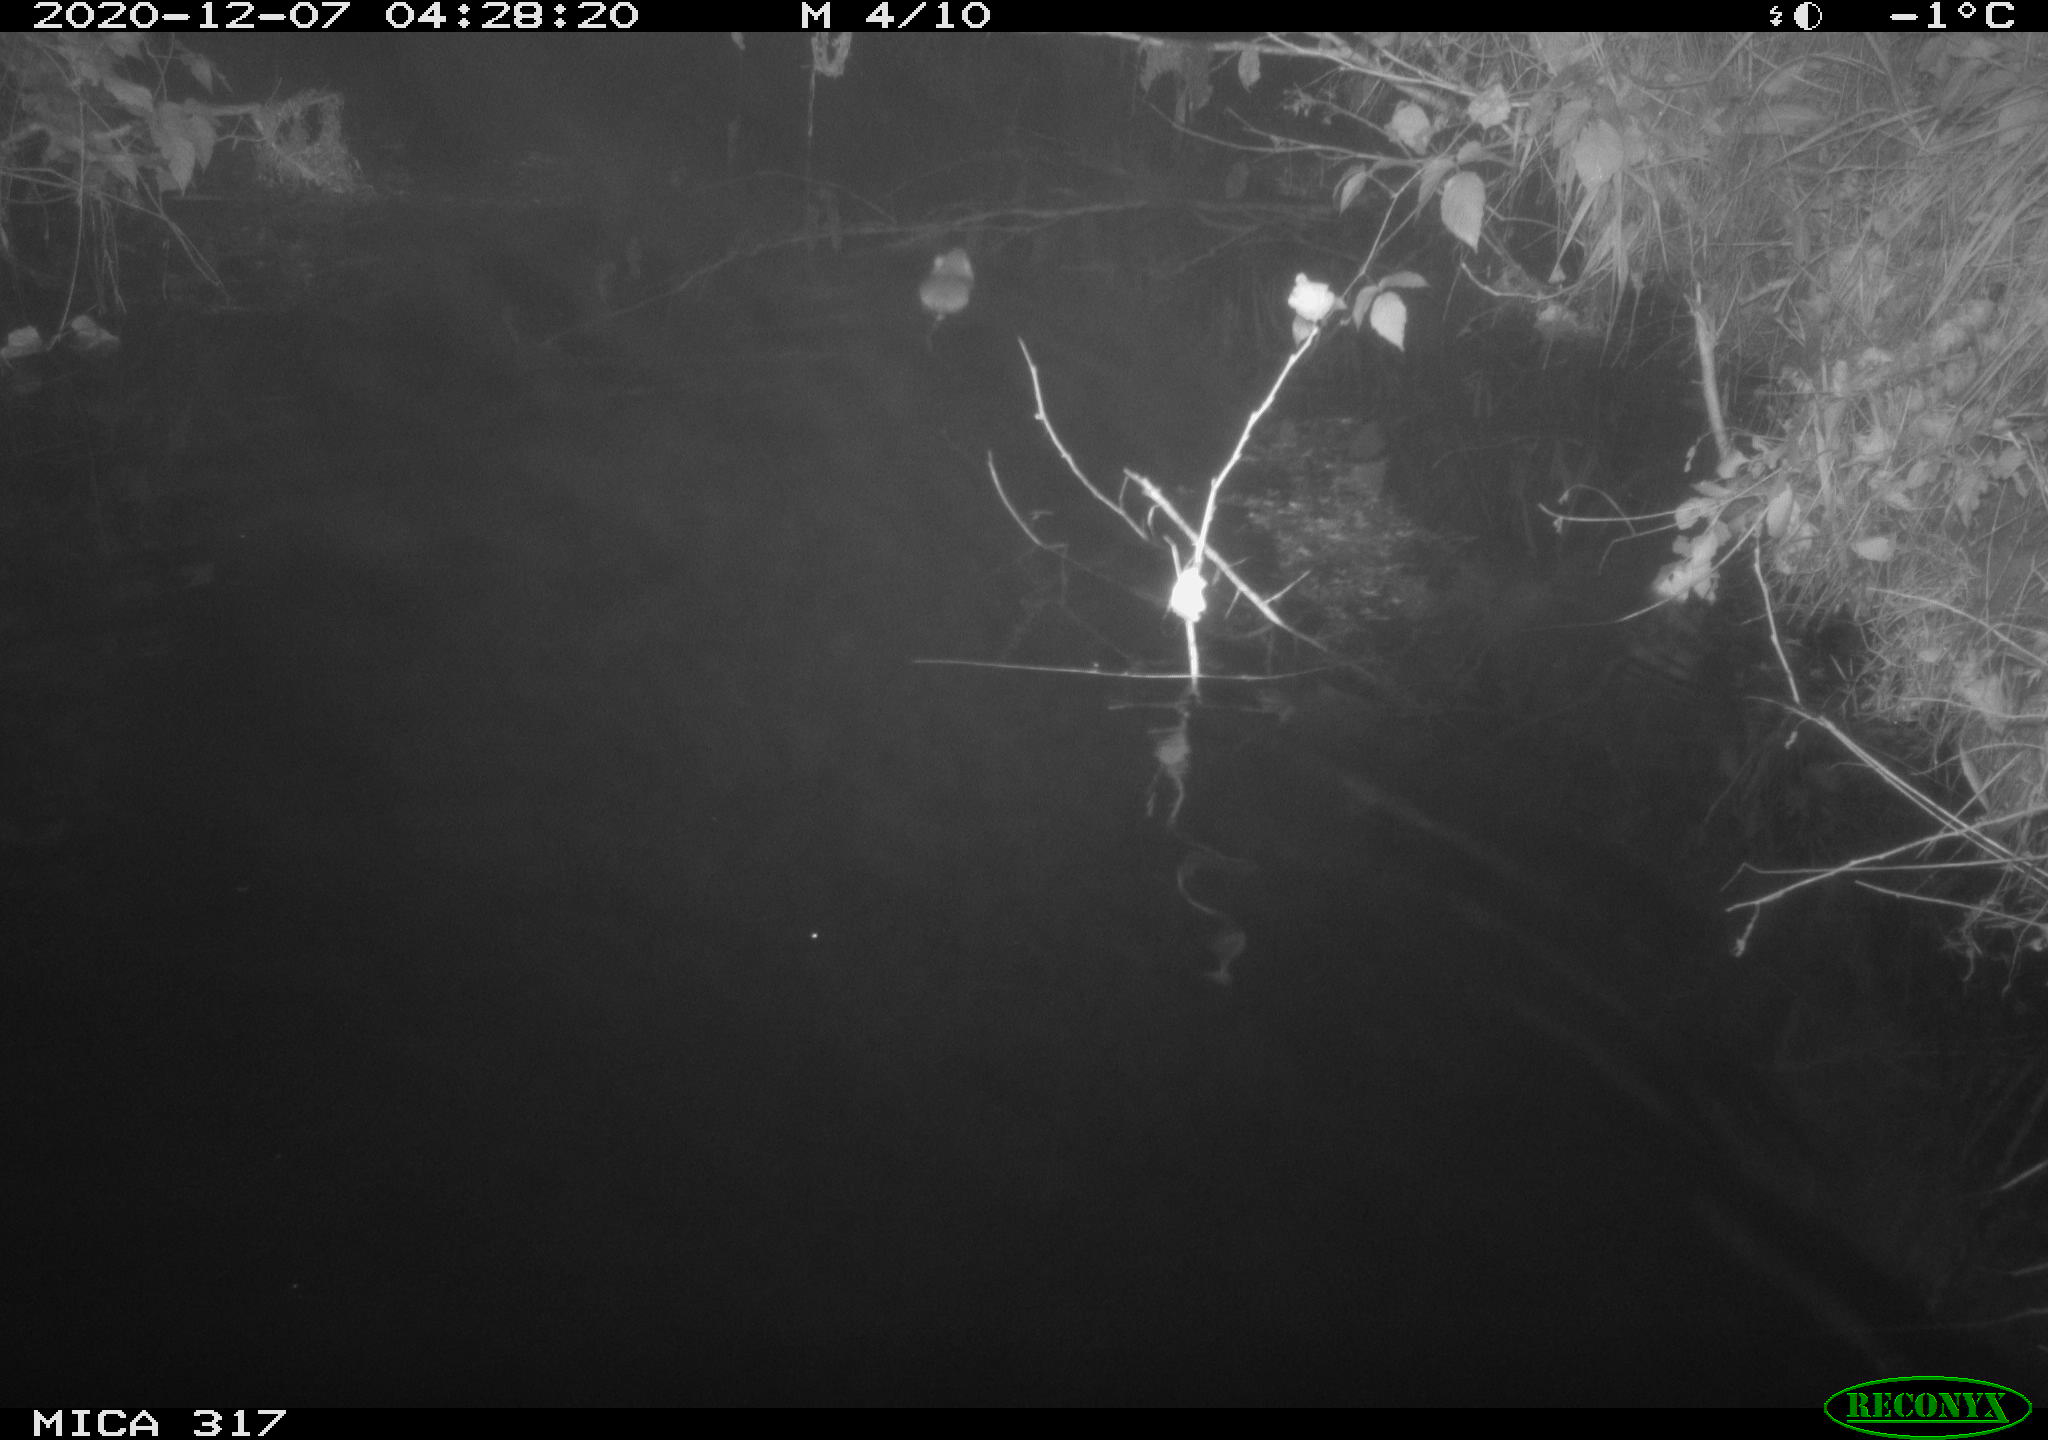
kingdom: Animalia
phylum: Chordata
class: Mammalia
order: Rodentia
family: Muridae
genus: Rattus
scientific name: Rattus norvegicus
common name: Brown rat
